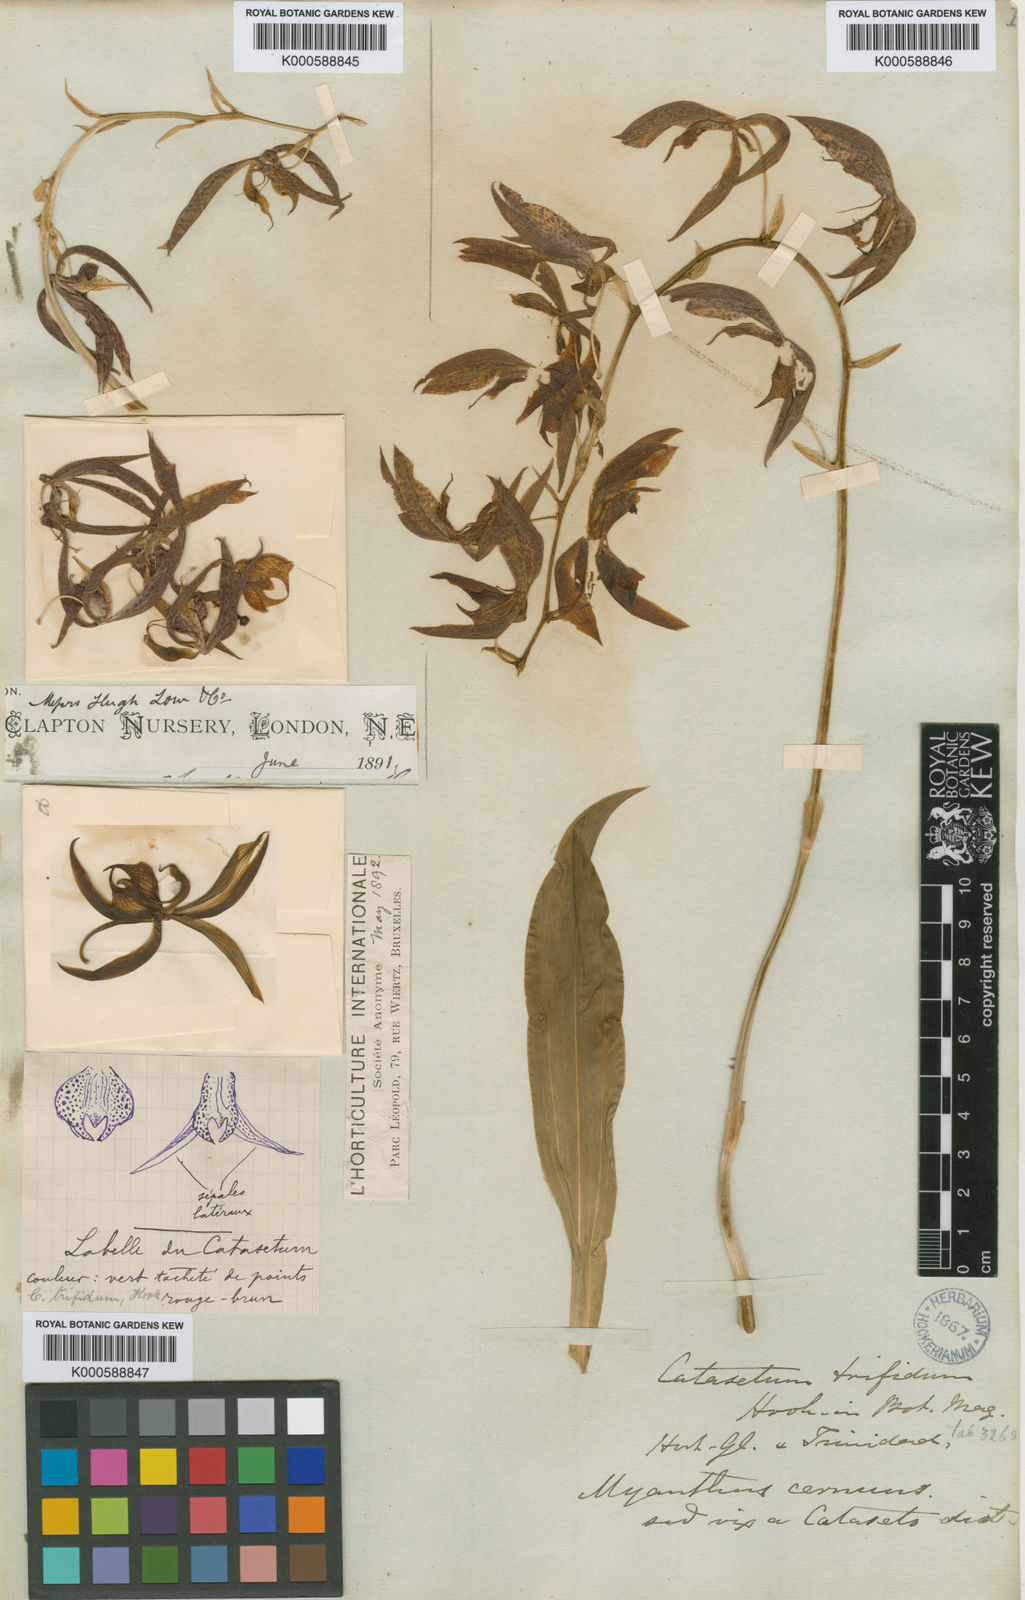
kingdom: Plantae
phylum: Tracheophyta
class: Liliopsida
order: Asparagales
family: Orchidaceae
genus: Catasetum
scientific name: Catasetum cernuum
